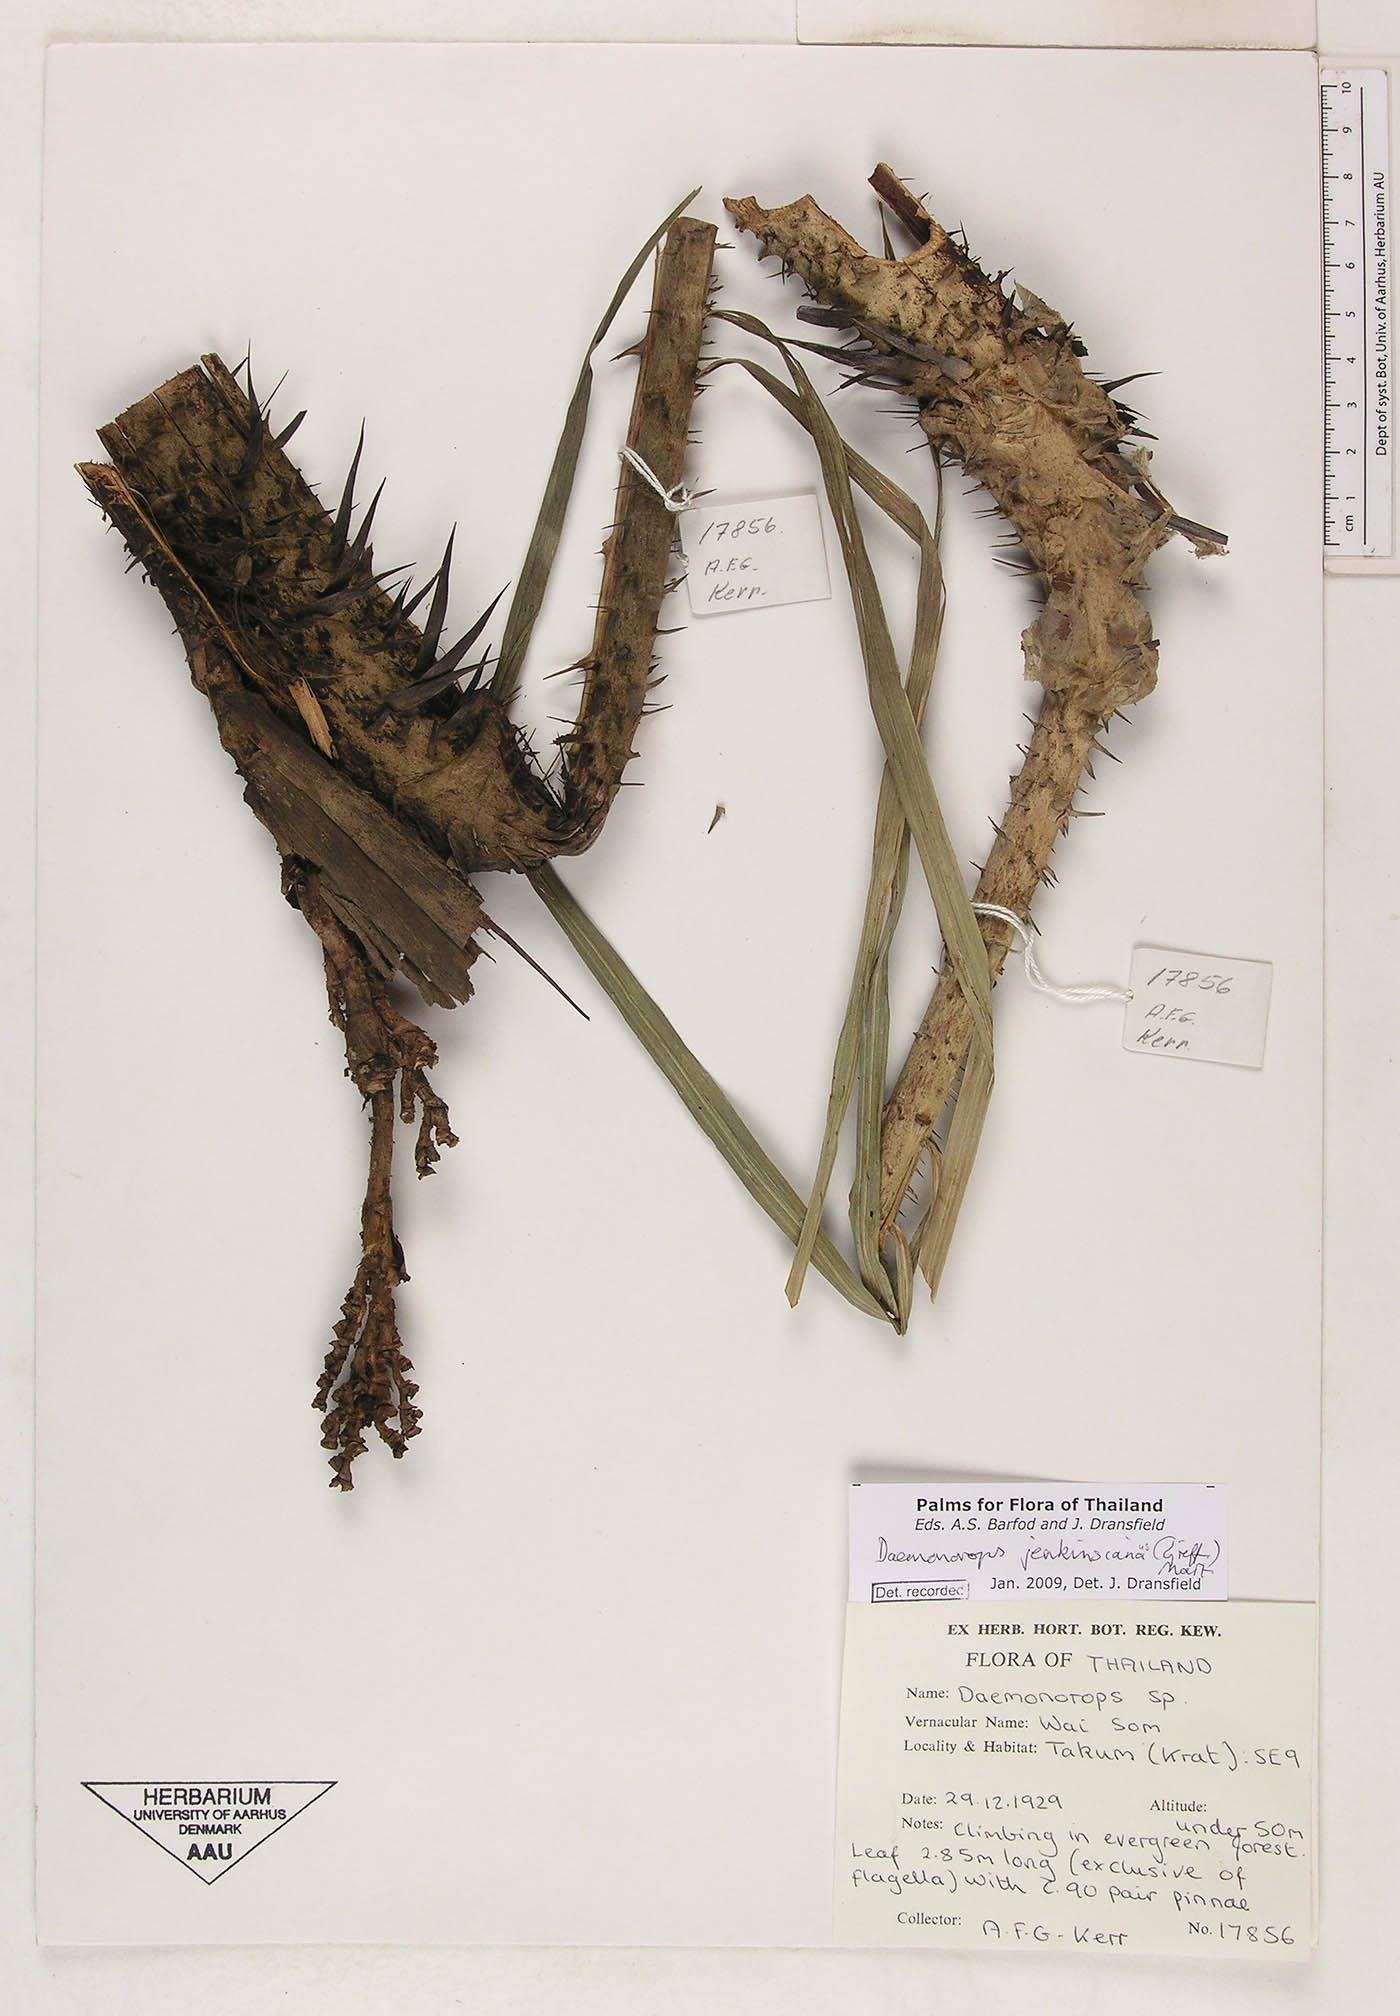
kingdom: Plantae
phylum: Tracheophyta
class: Liliopsida
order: Arecales
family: Arecaceae
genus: Calamus
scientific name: Calamus melanochaetes
